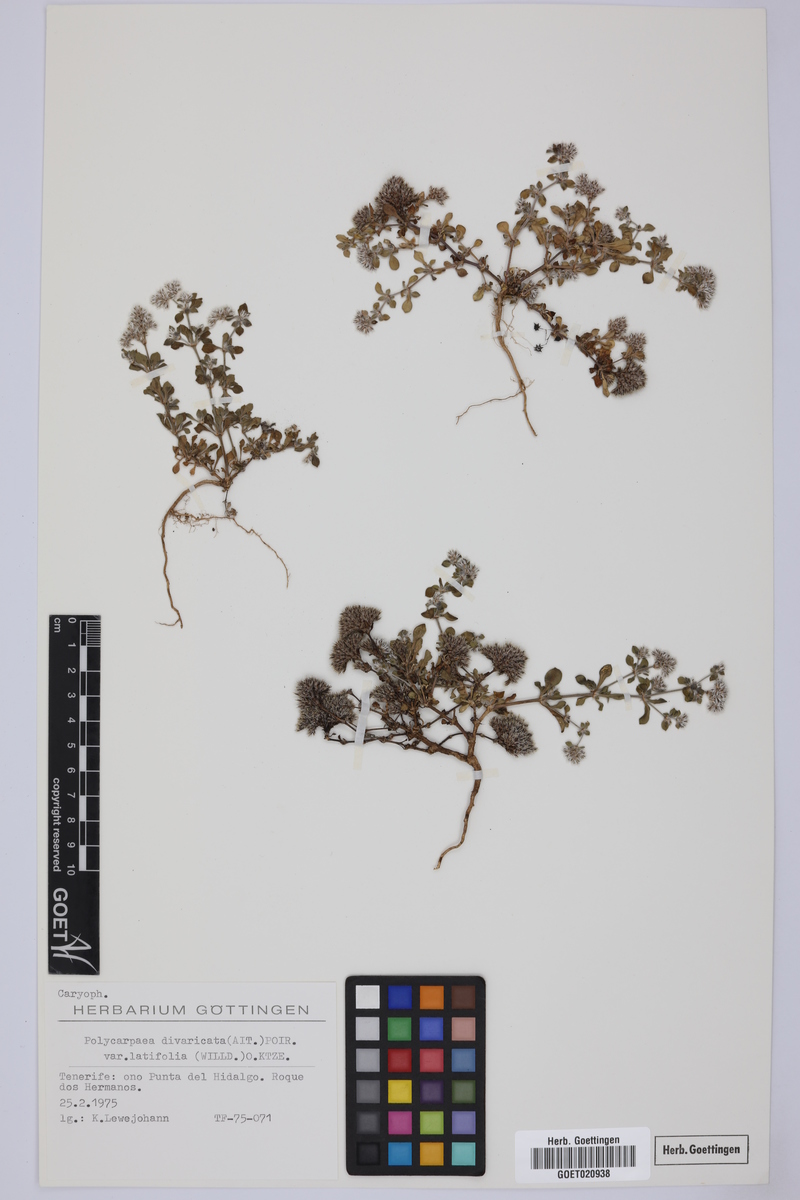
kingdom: Plantae
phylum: Tracheophyta
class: Magnoliopsida
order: Caryophyllales
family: Caryophyllaceae
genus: Polycarpaea
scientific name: Polycarpaea latifolia
